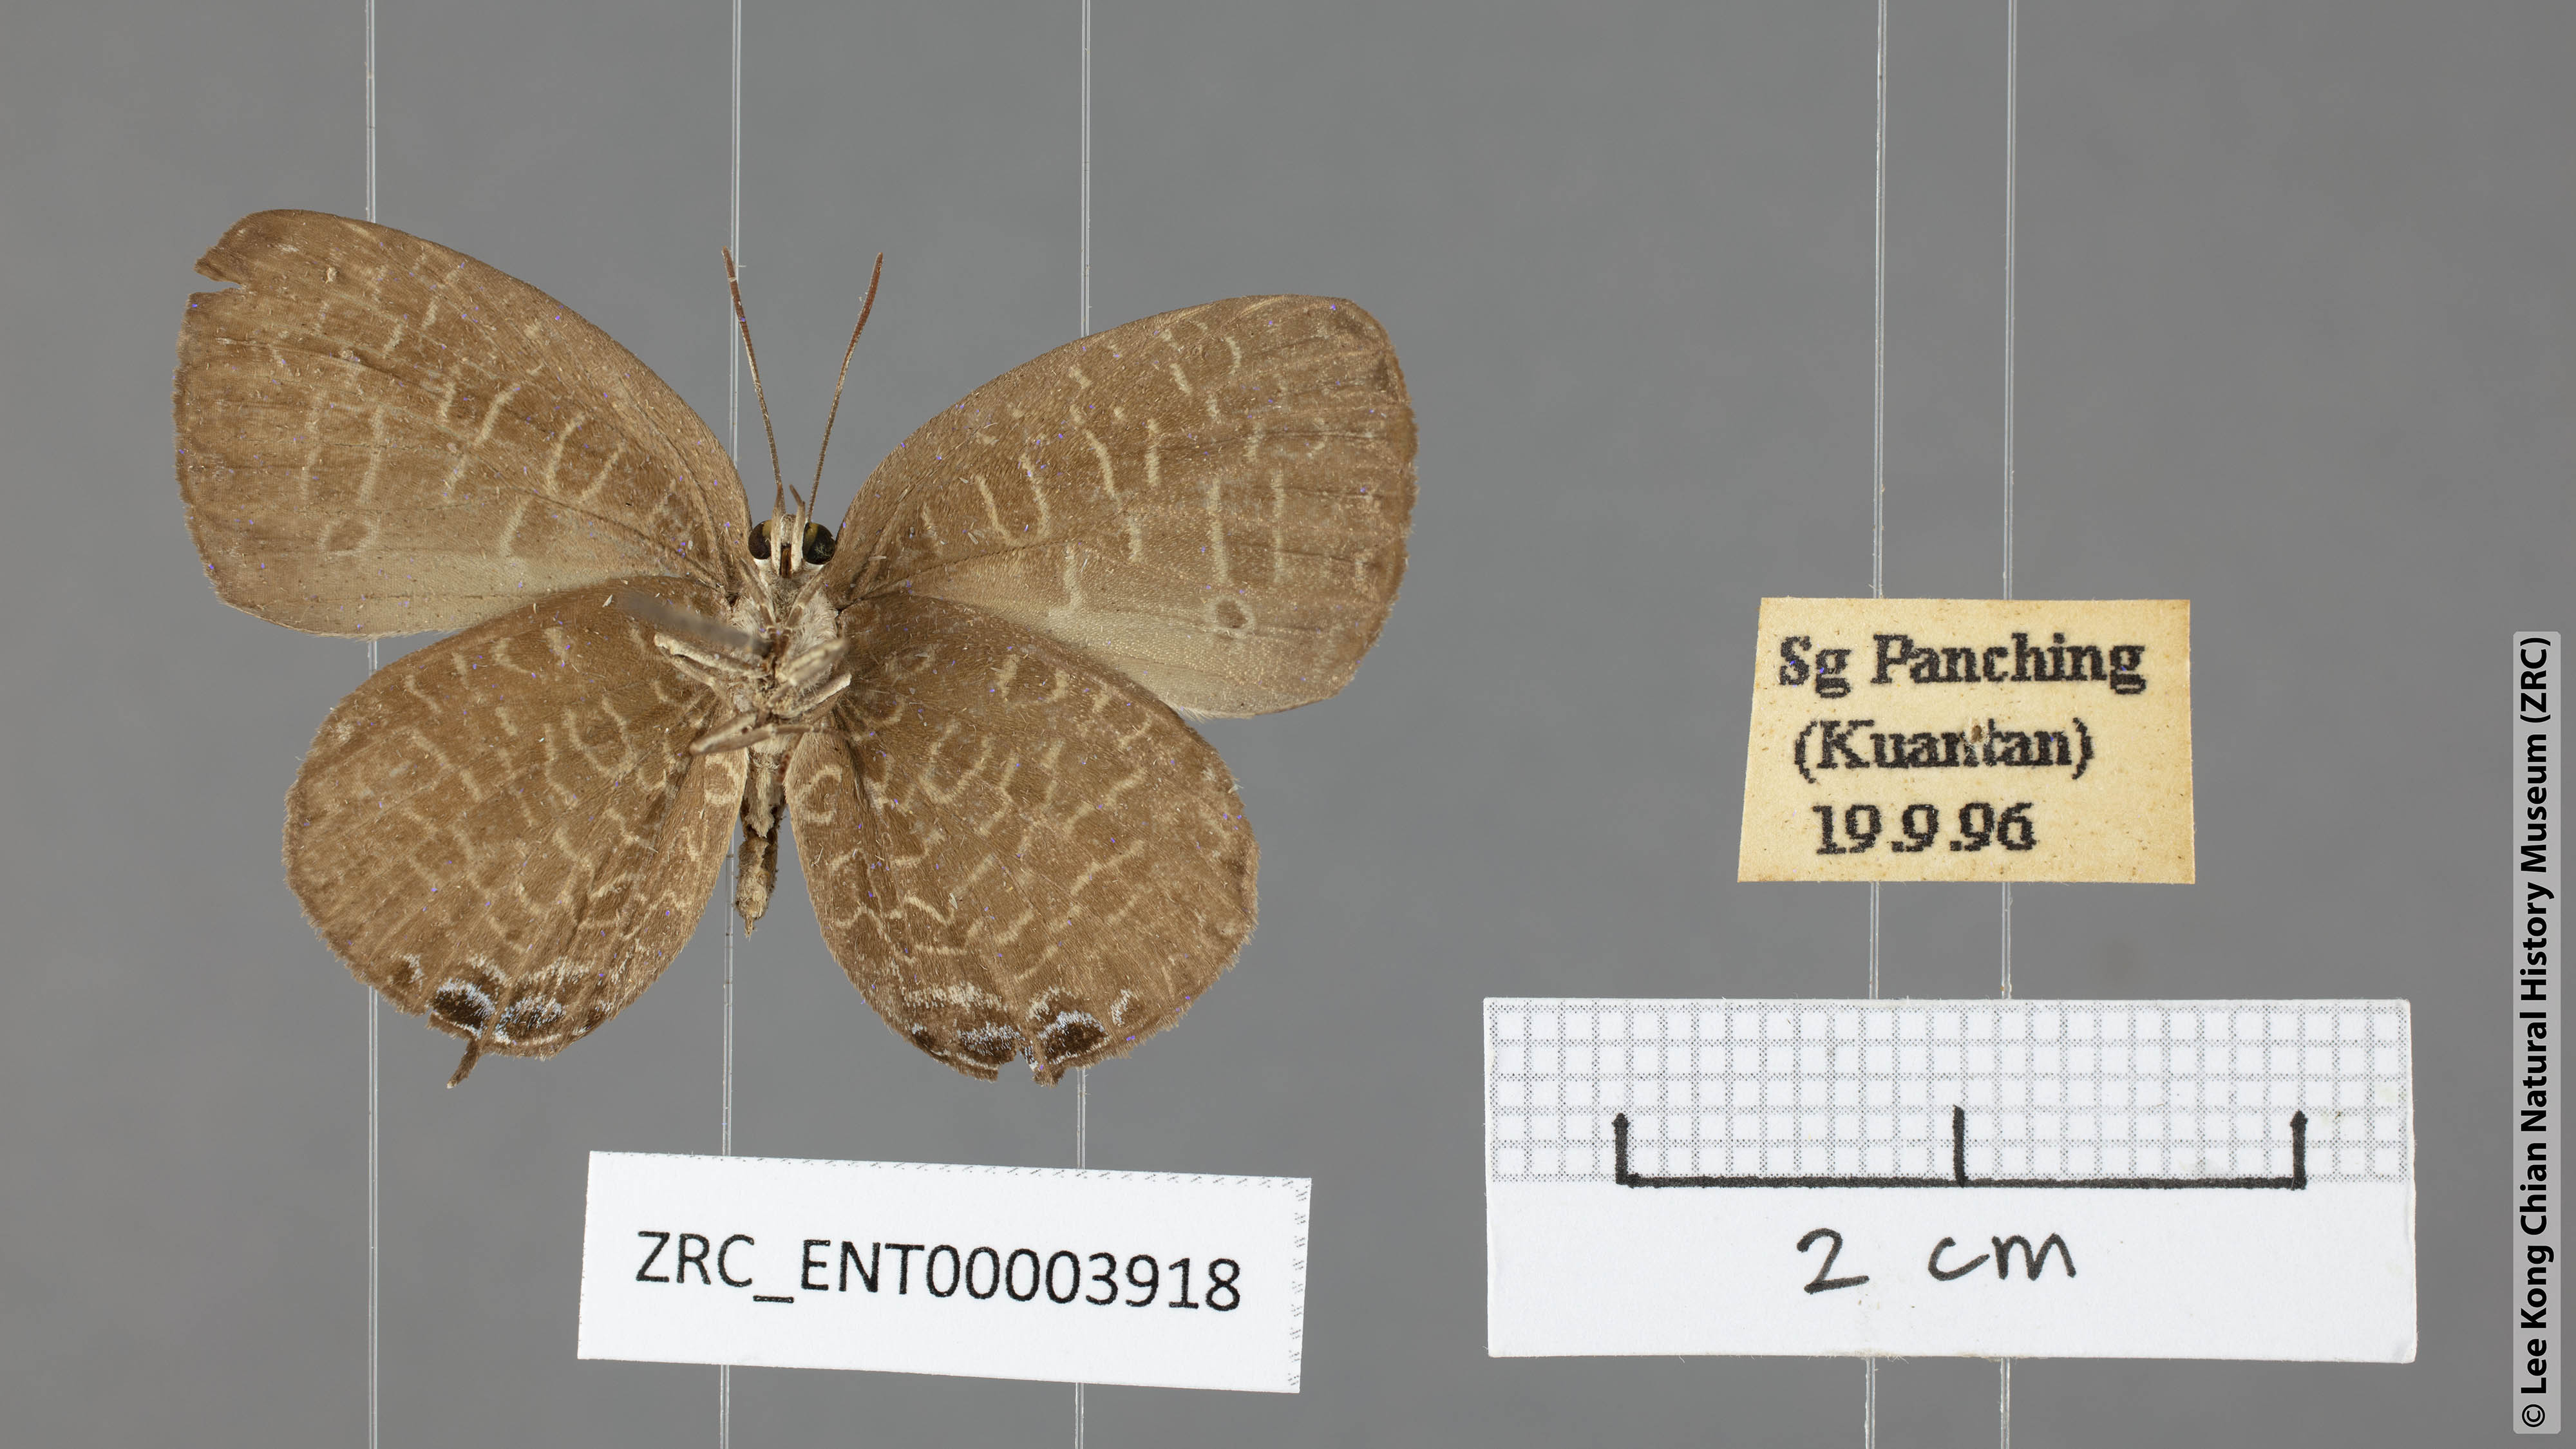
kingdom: Animalia
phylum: Arthropoda
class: Insecta
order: Lepidoptera
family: Lycaenidae
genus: Arhopala
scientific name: Arhopala democritus
